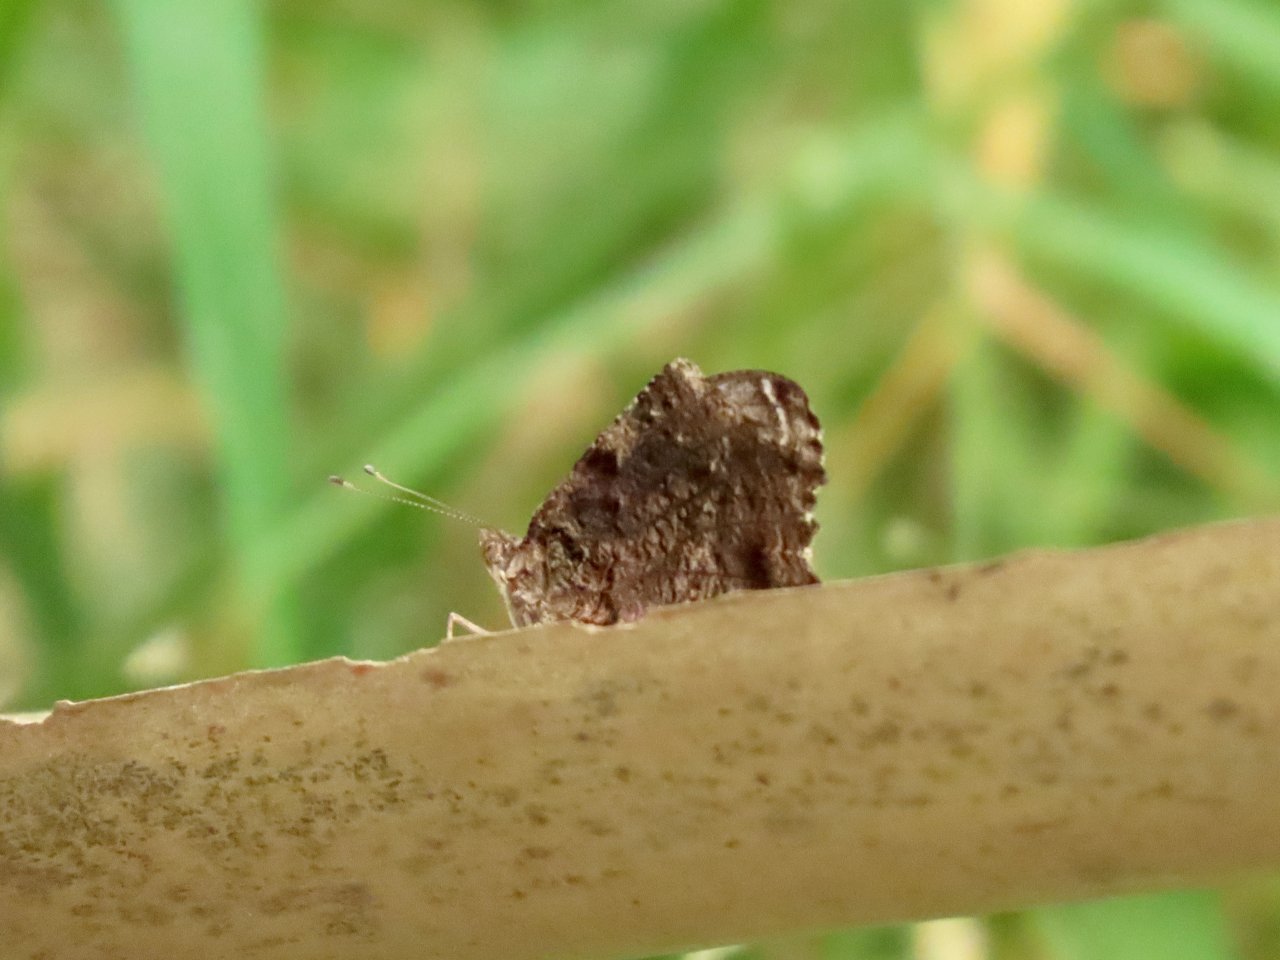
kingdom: Animalia
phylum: Arthropoda
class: Insecta
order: Lepidoptera
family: Nymphalidae
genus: Myscelia
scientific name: Myscelia ethusa
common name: Mexican Bluewing
